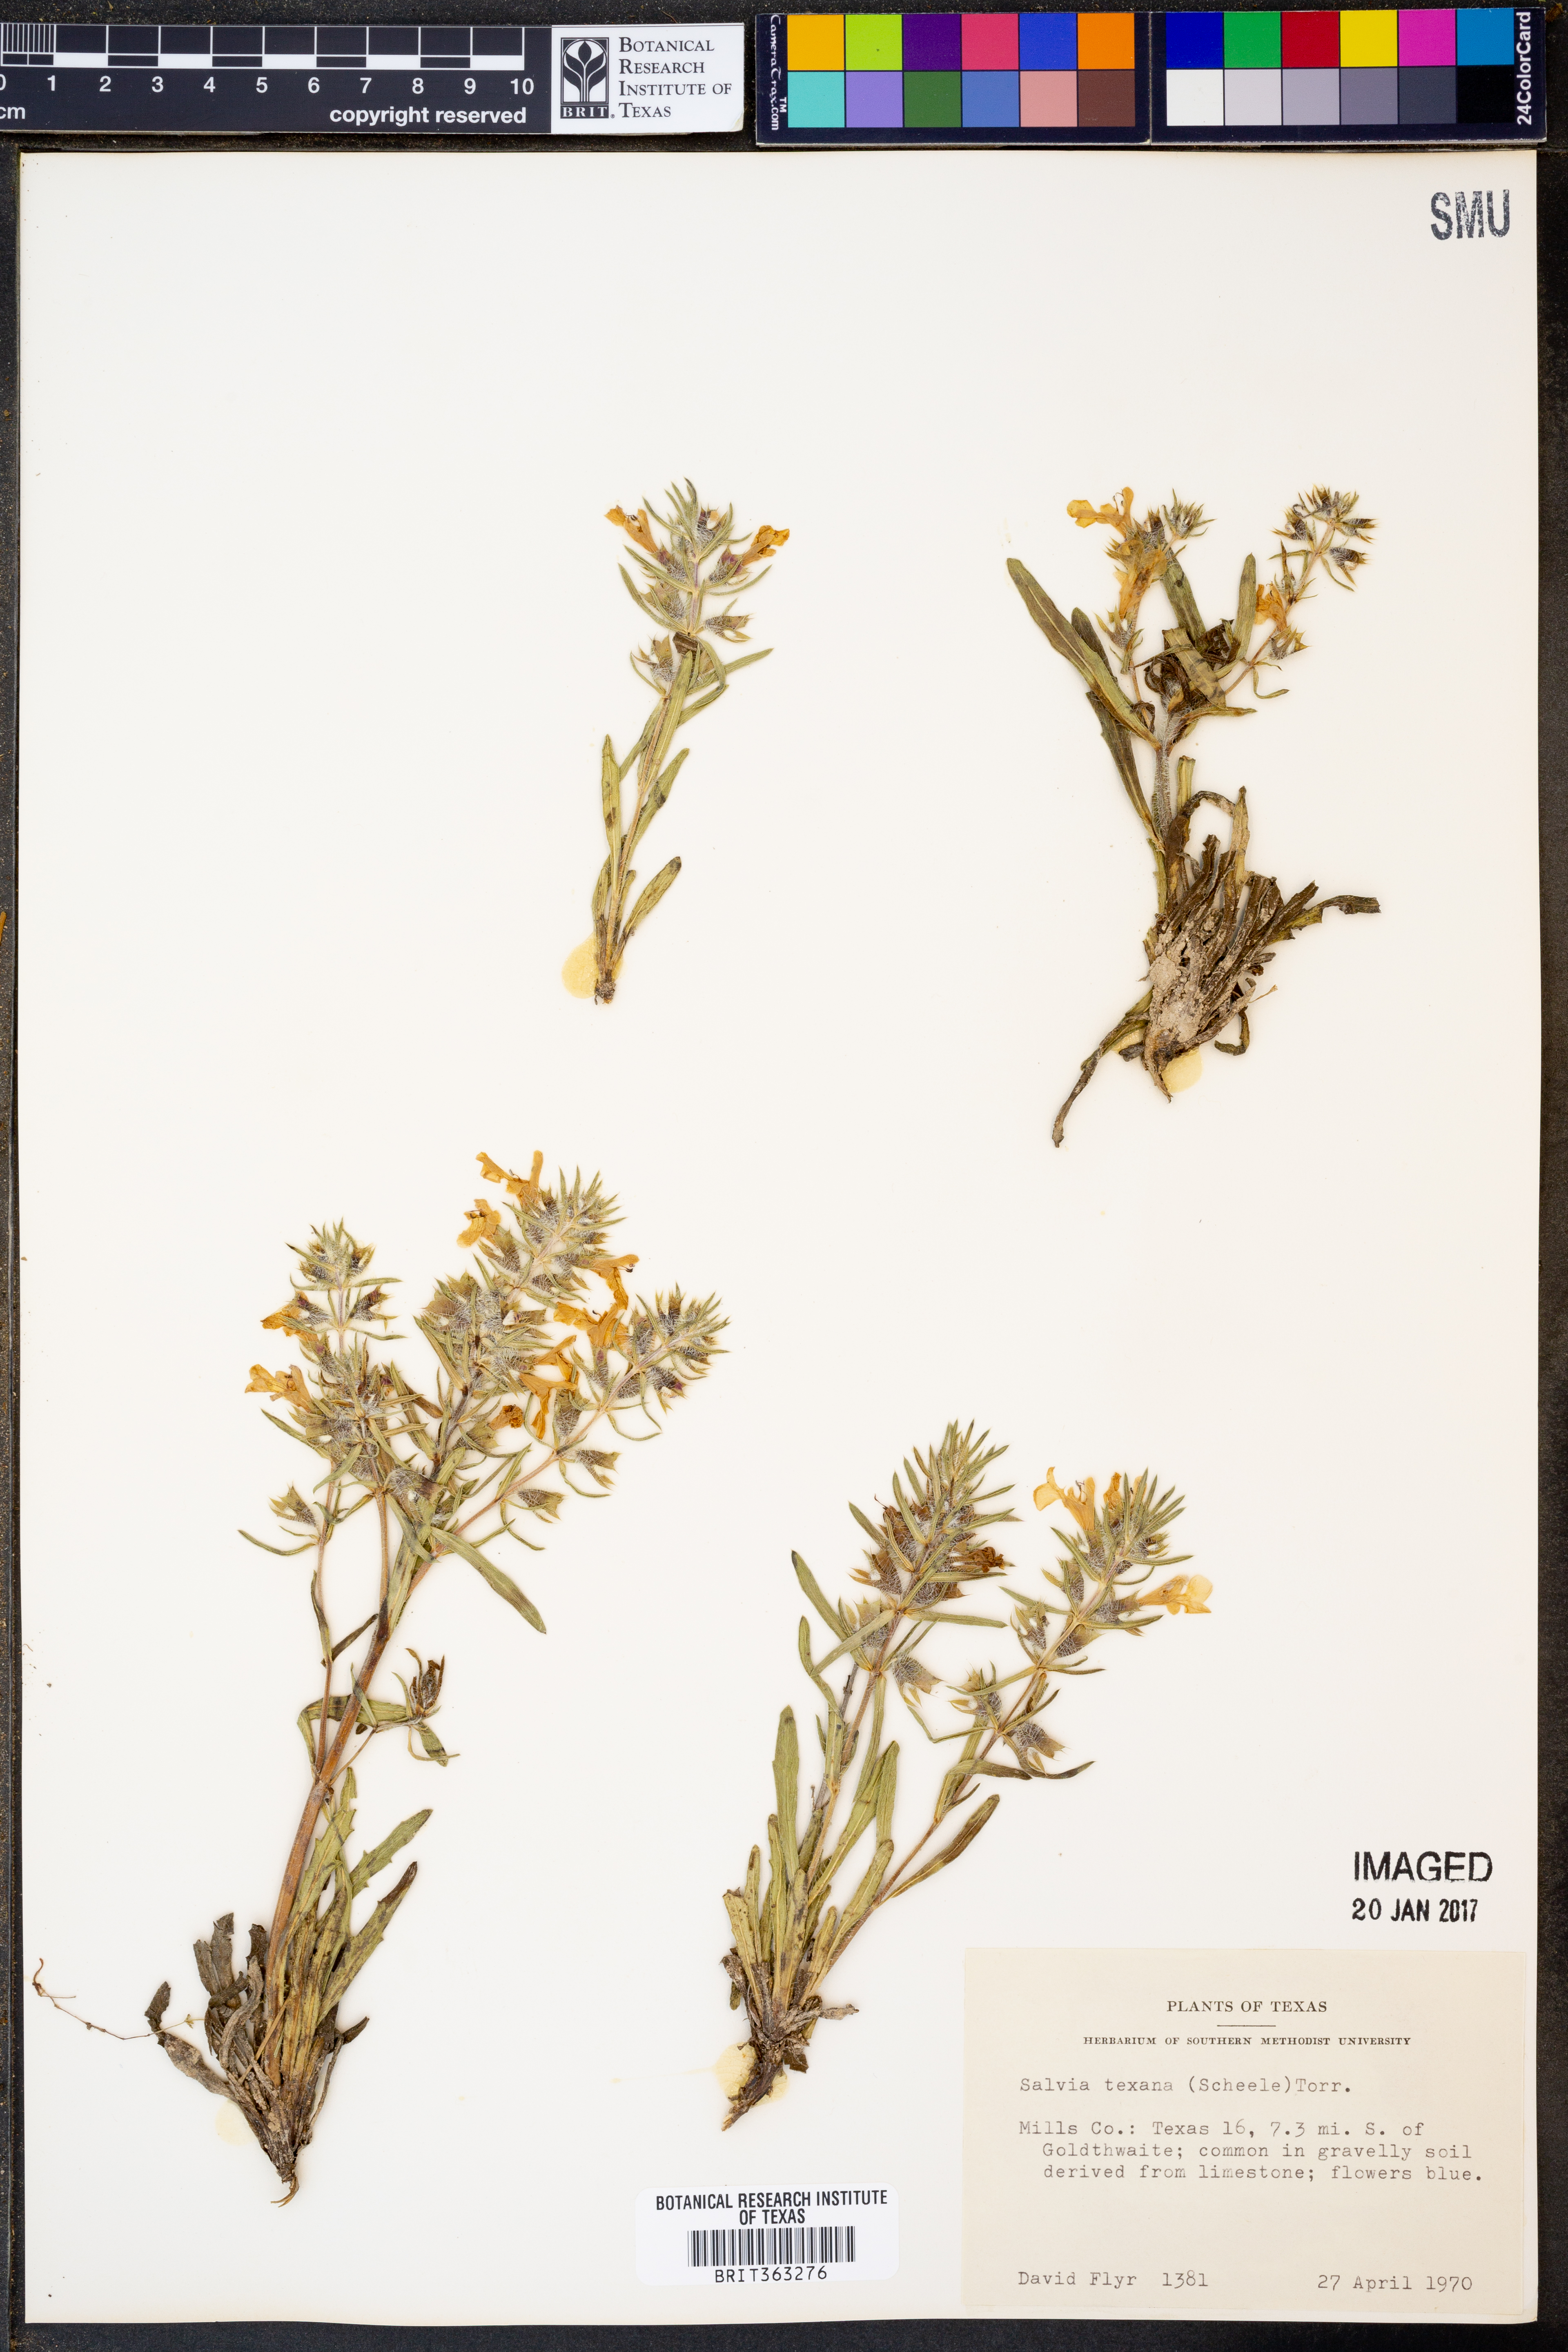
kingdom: Plantae
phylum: Tracheophyta
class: Magnoliopsida
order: Lamiales
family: Lamiaceae
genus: Salvia
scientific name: Salvia texana
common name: Texas sage
